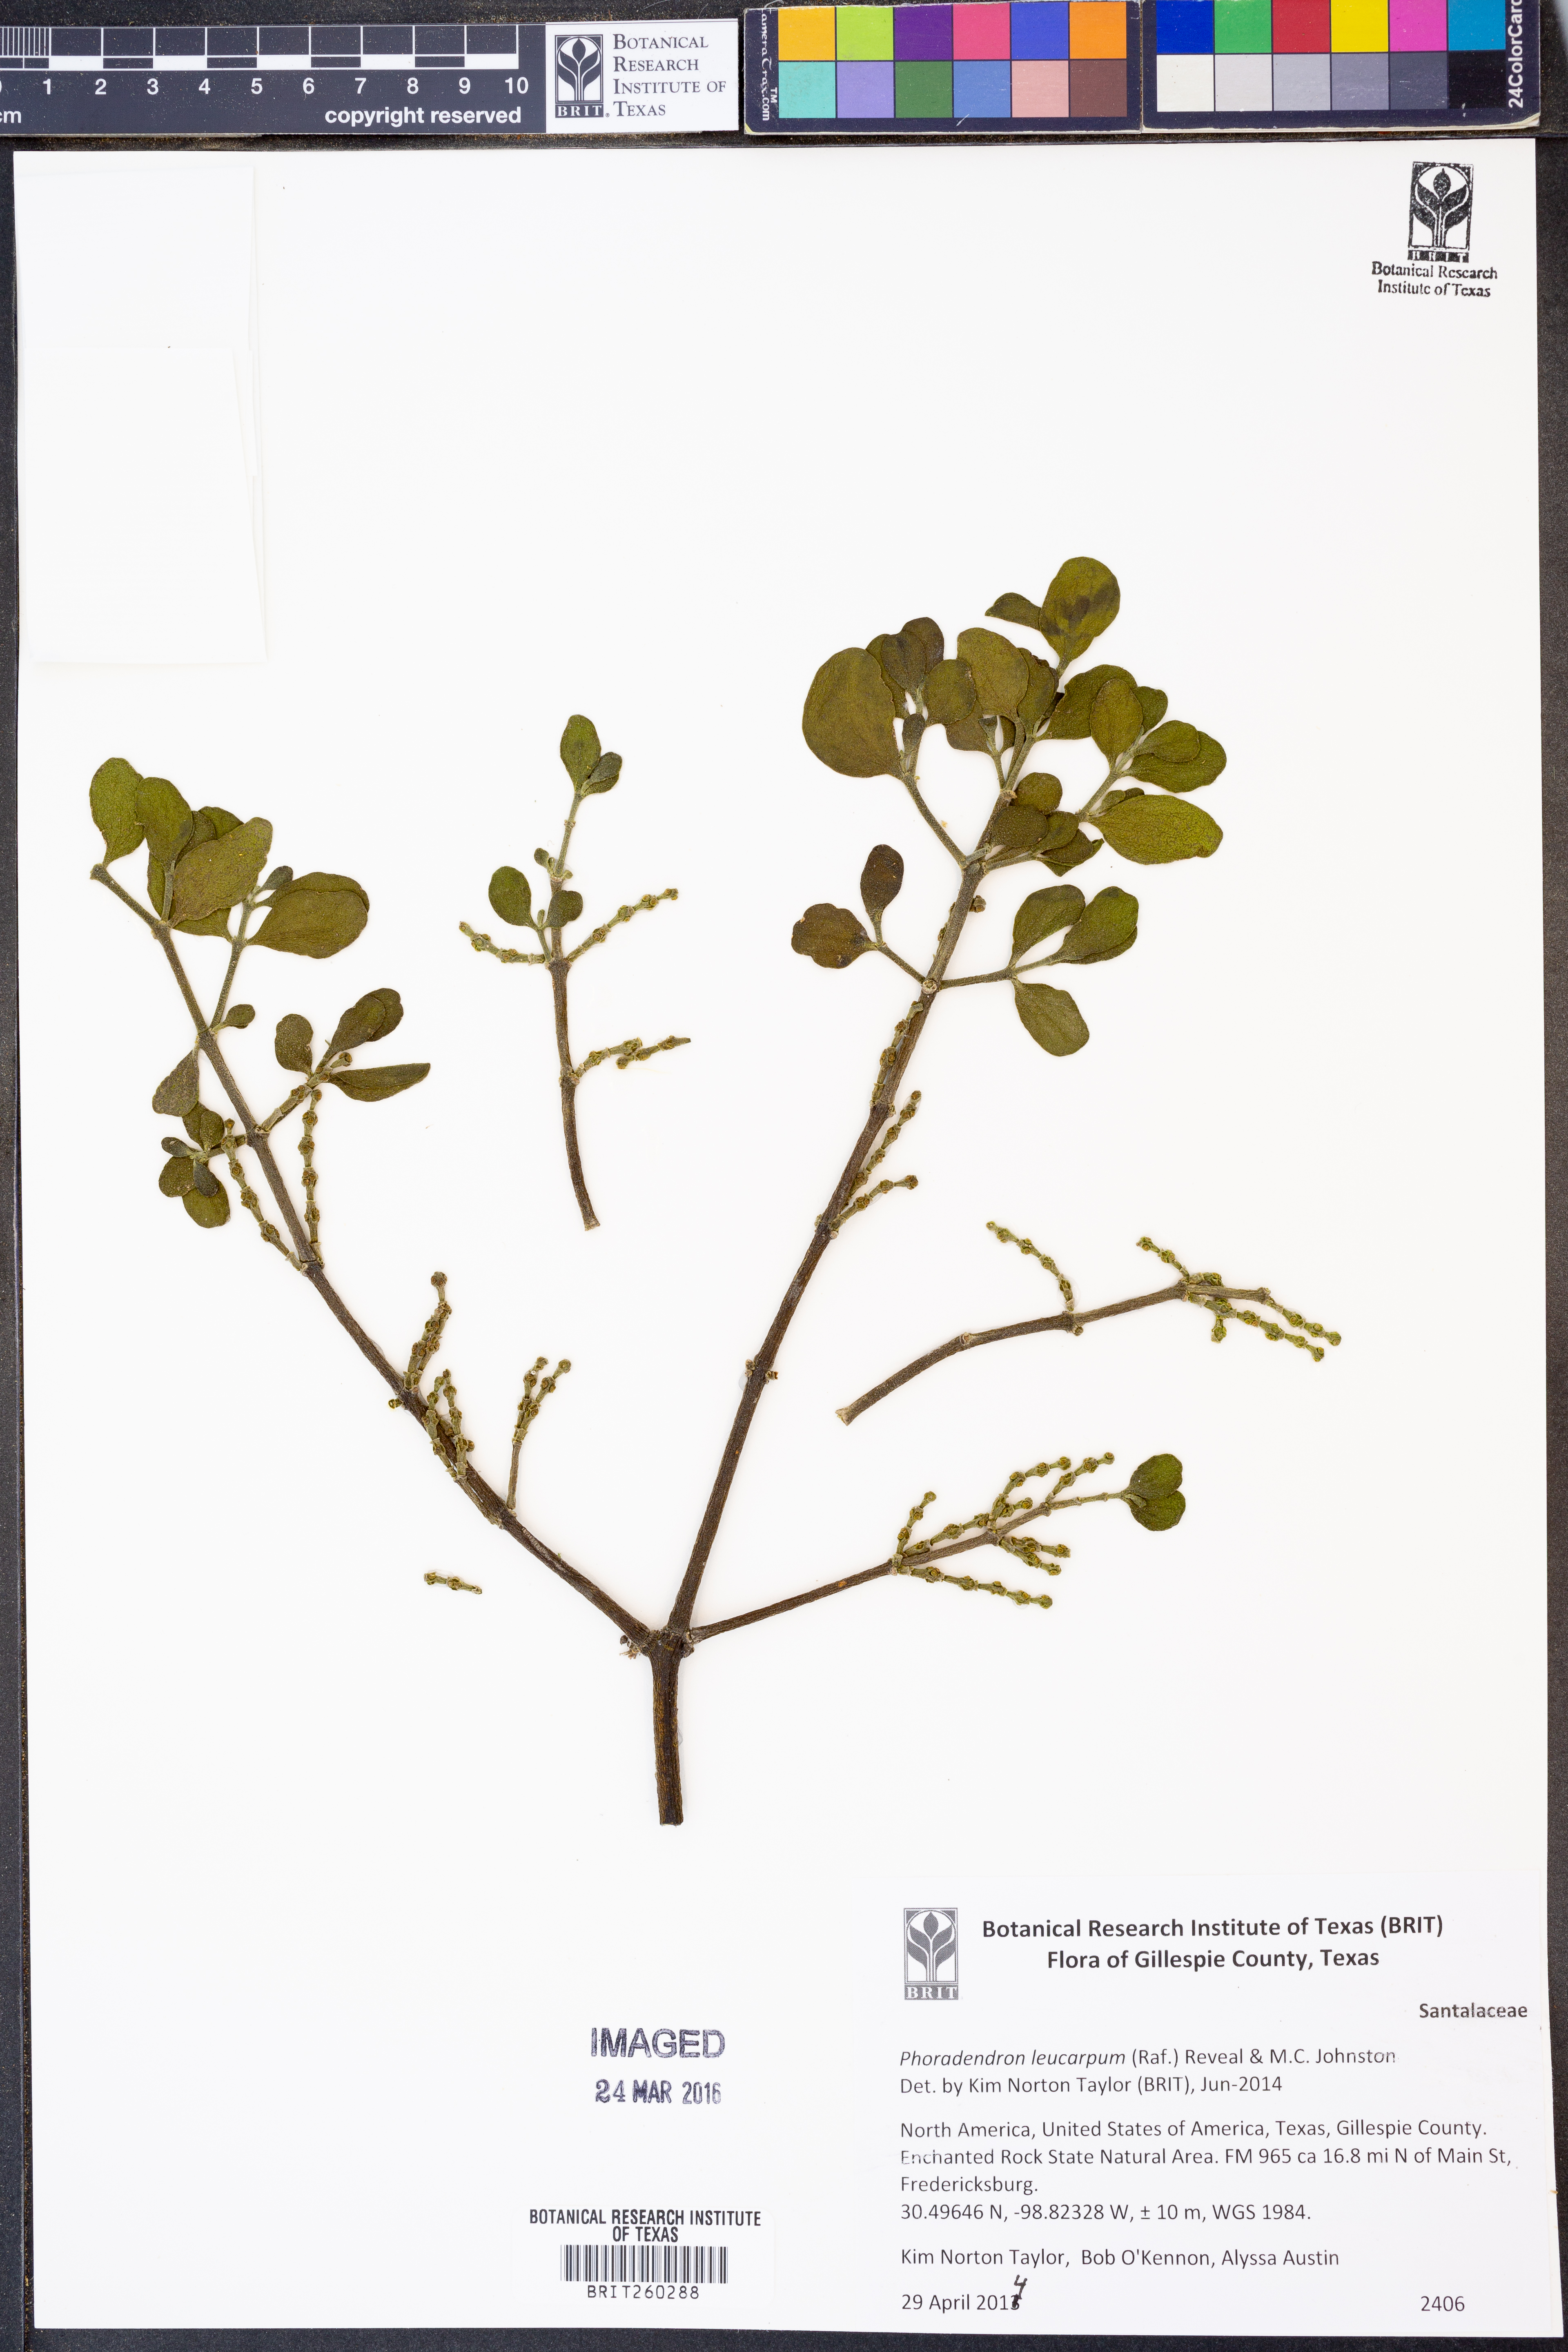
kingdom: Plantae
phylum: Tracheophyta
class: Magnoliopsida
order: Santalales
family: Viscaceae
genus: Phoradendron
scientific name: Phoradendron leucarpum
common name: Pacific mistletoe
